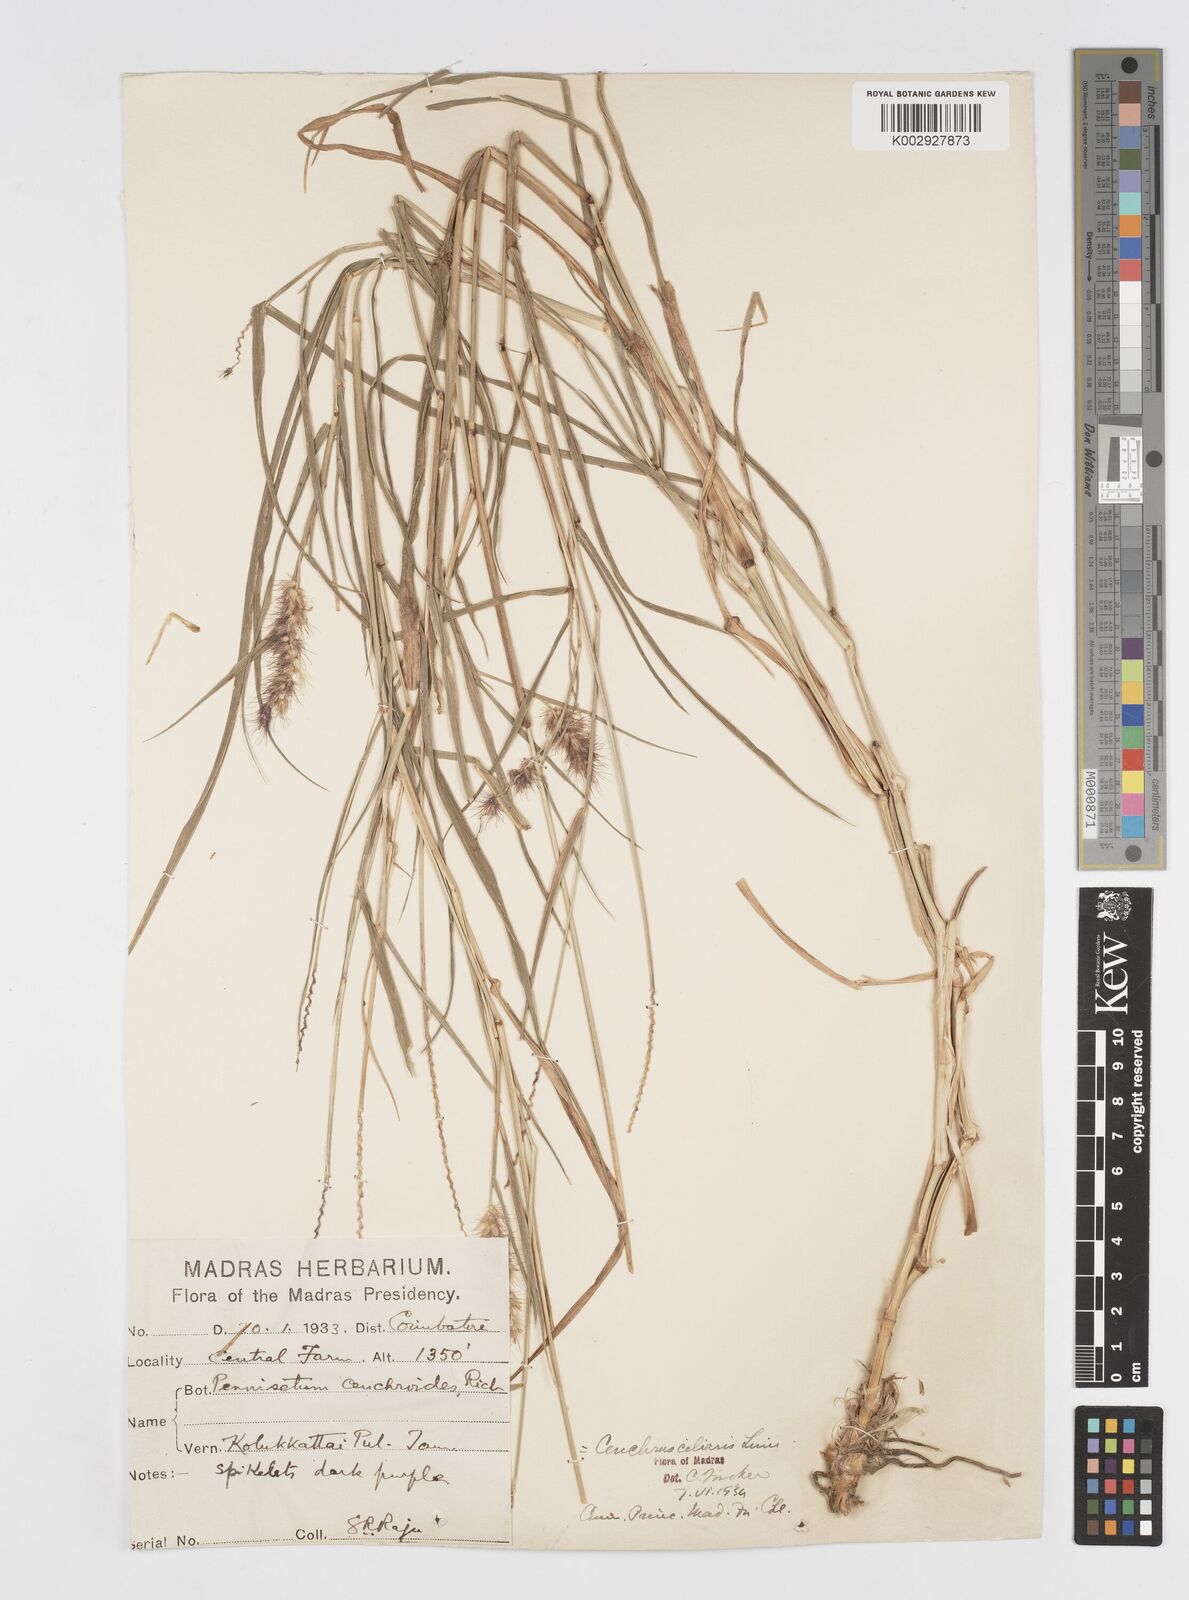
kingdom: Plantae
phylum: Tracheophyta
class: Liliopsida
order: Poales
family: Poaceae
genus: Cenchrus
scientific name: Cenchrus ciliaris
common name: Buffelgrass
